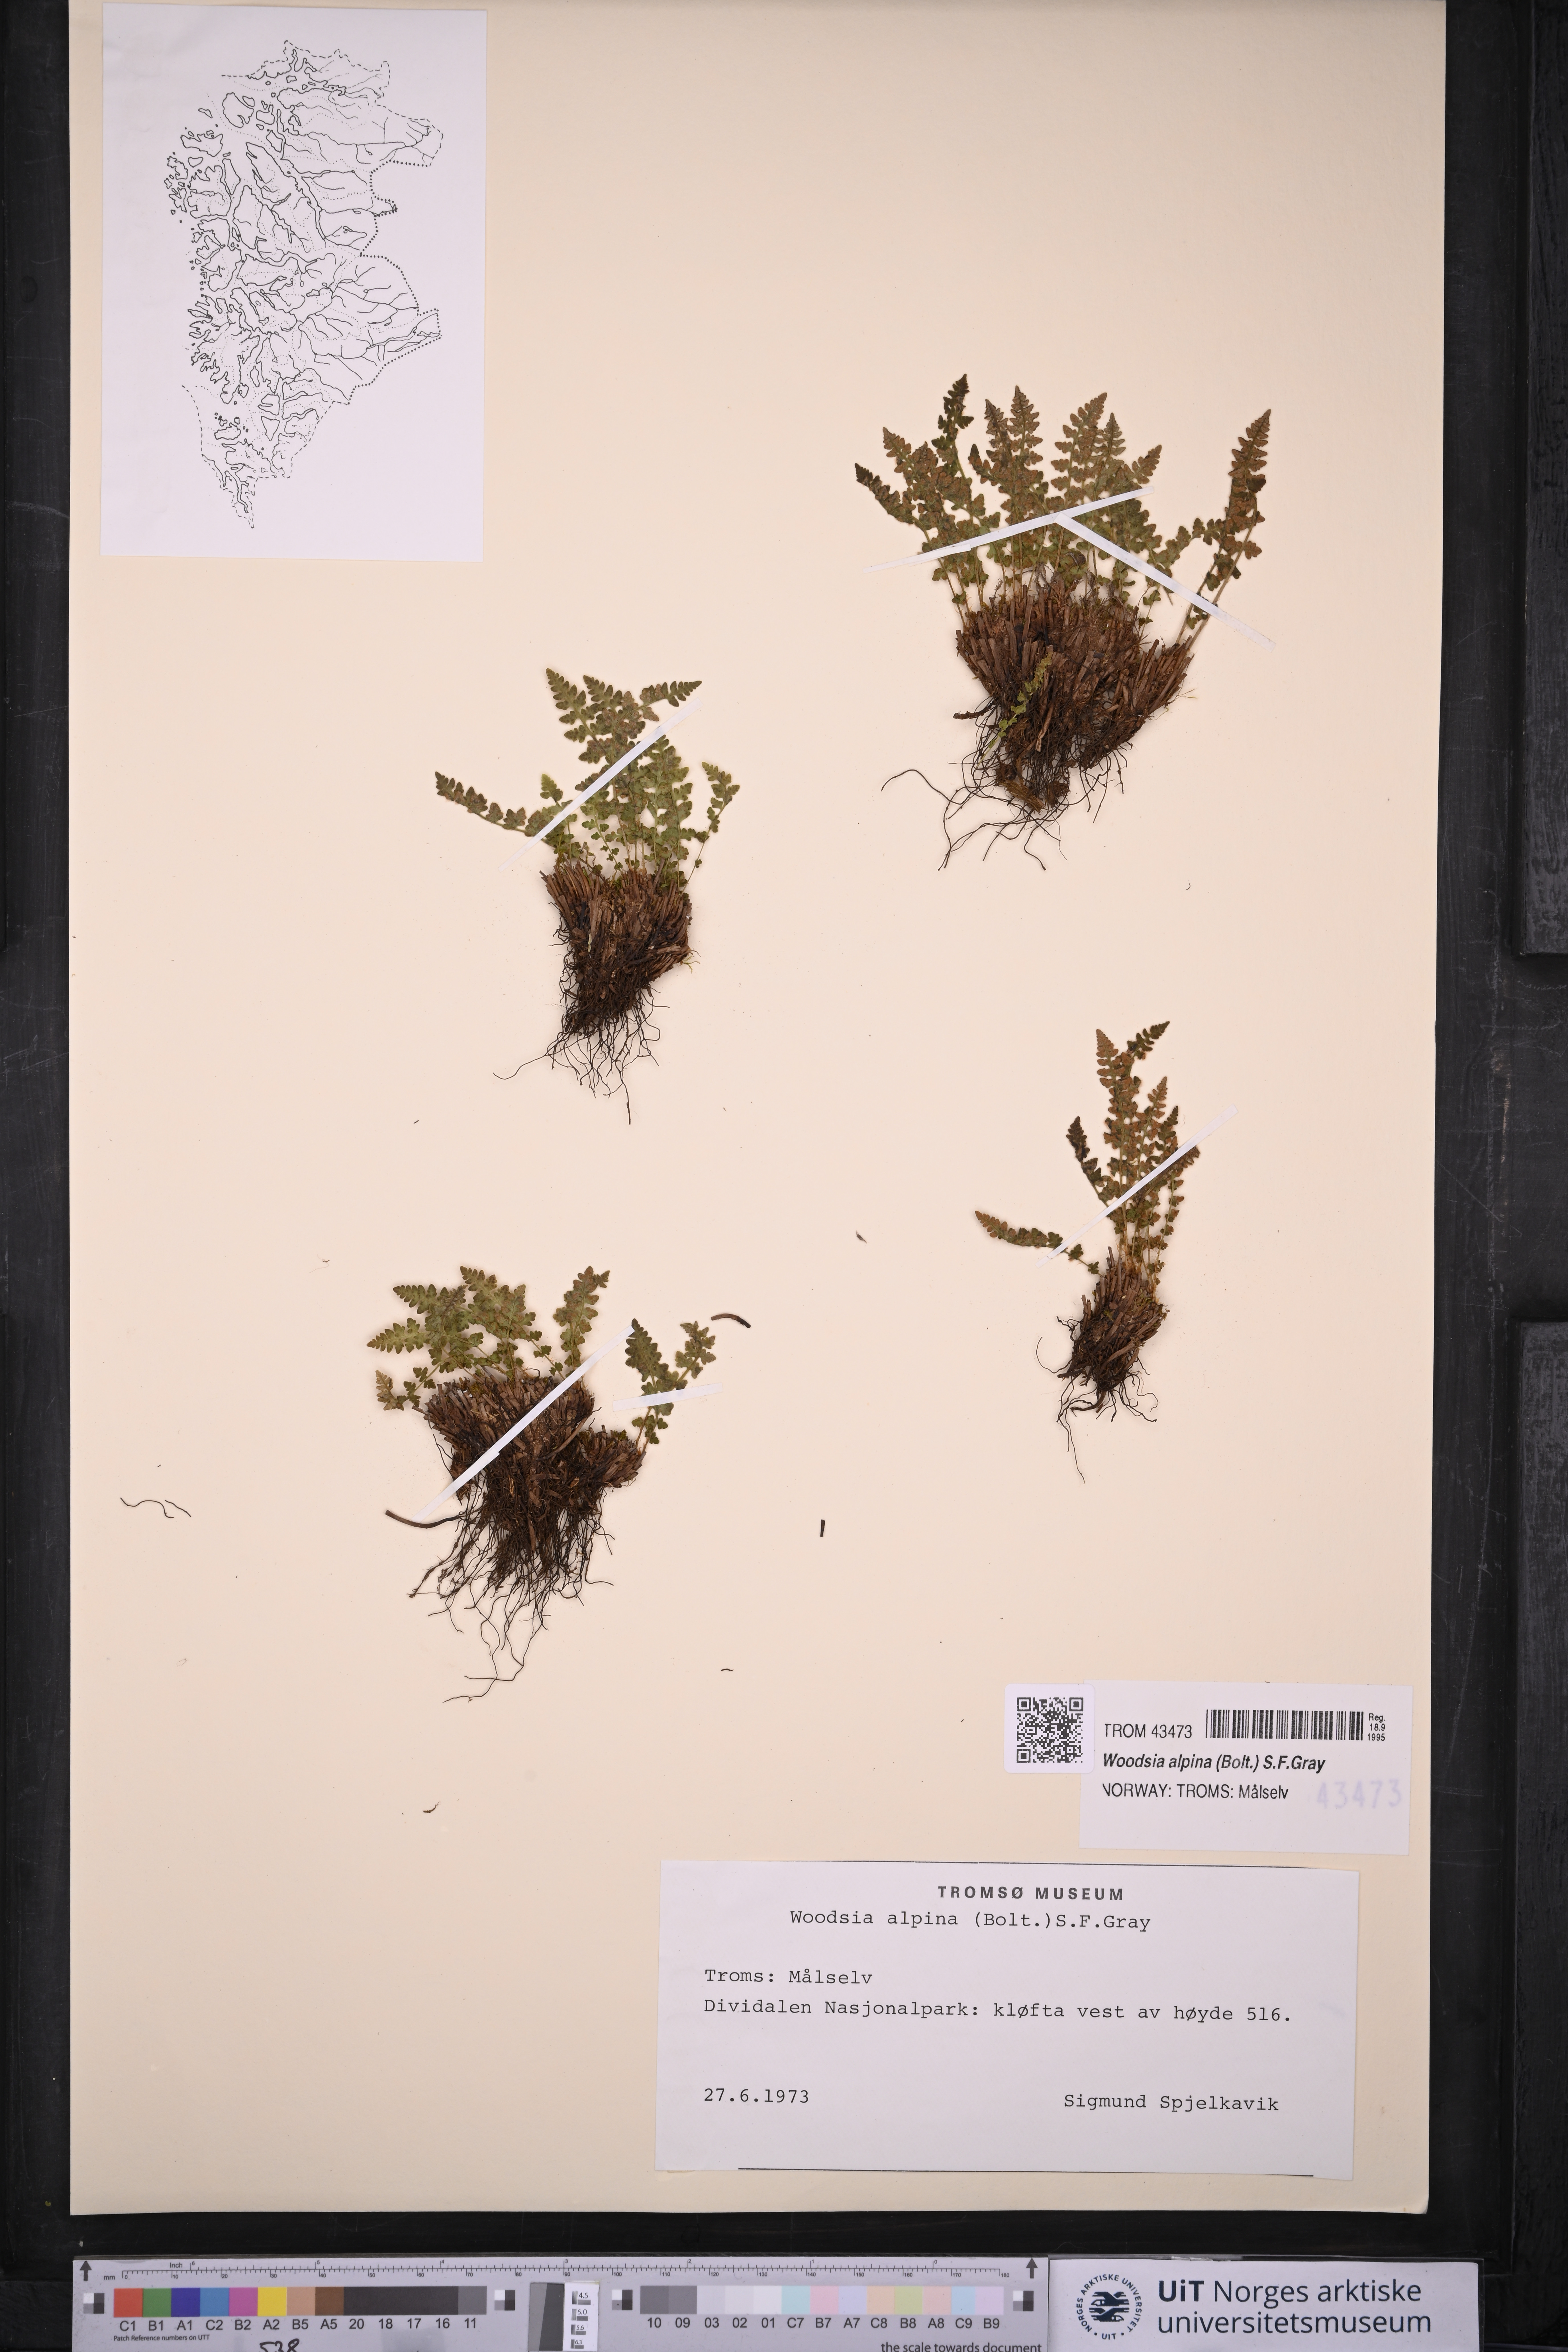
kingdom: Plantae
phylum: Tracheophyta
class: Polypodiopsida
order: Polypodiales
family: Woodsiaceae
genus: Woodsia
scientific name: Woodsia alpina
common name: Alpine woodsia
